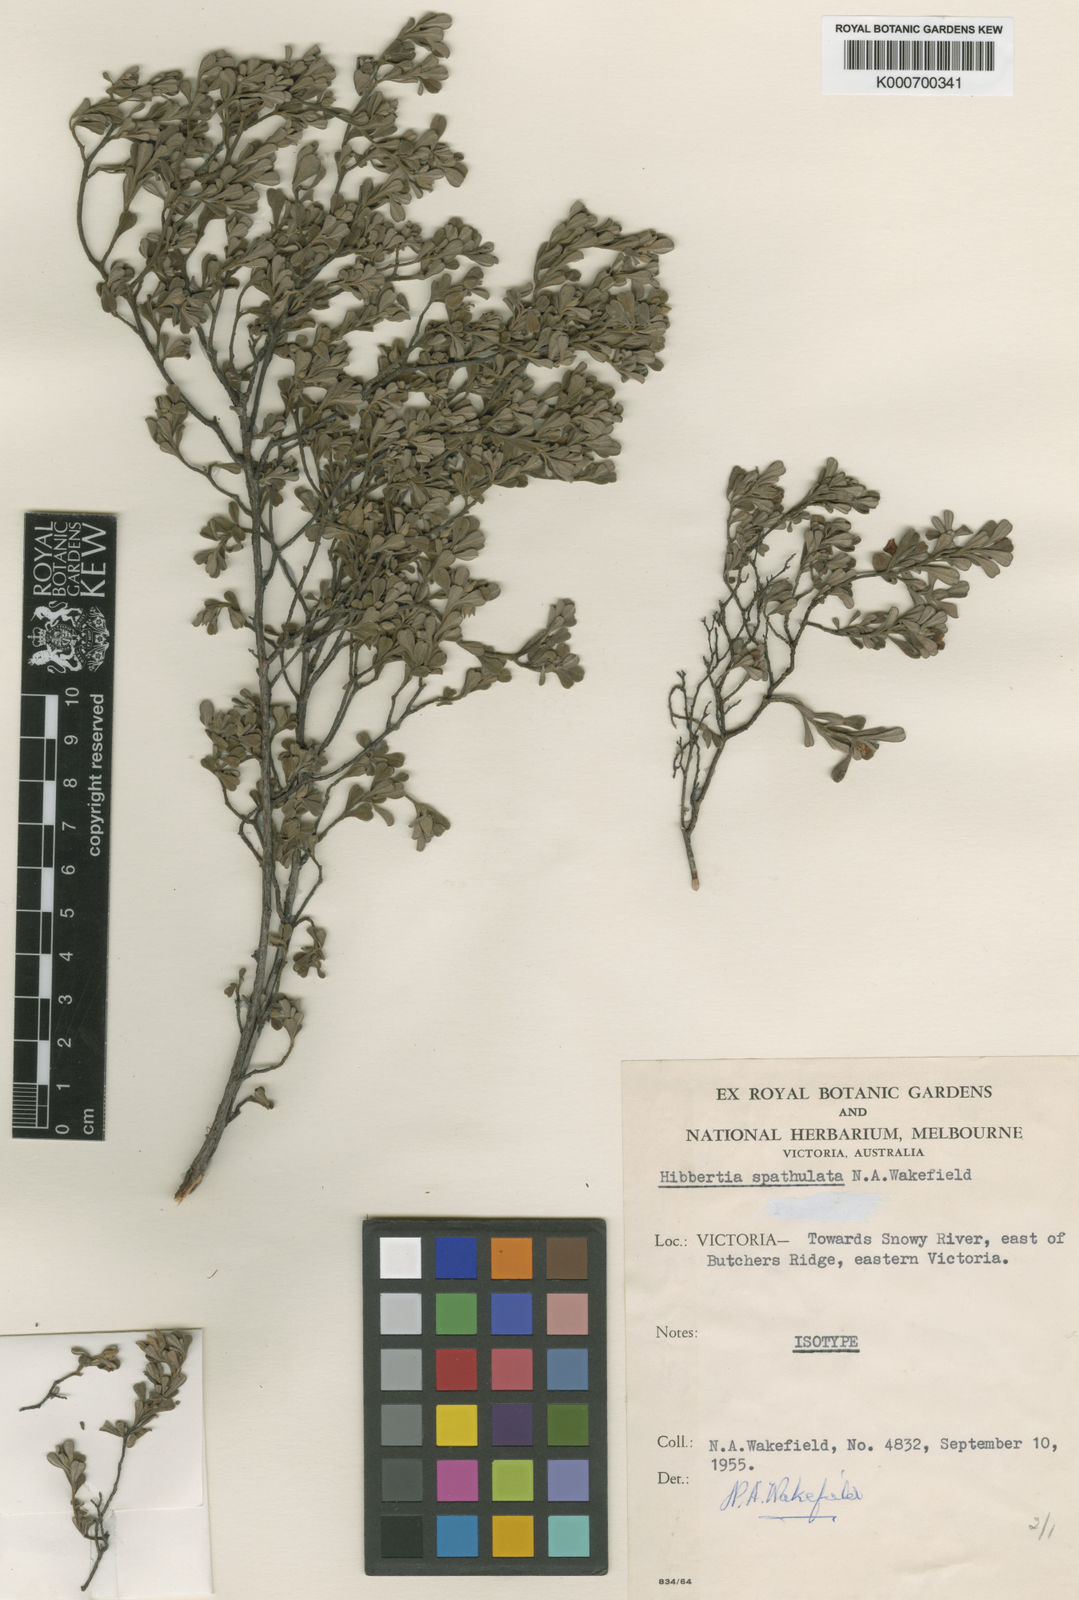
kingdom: Plantae
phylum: Tracheophyta
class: Magnoliopsida
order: Dilleniales
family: Dilleniaceae
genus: Hibbertia
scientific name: Hibbertia spathulata
